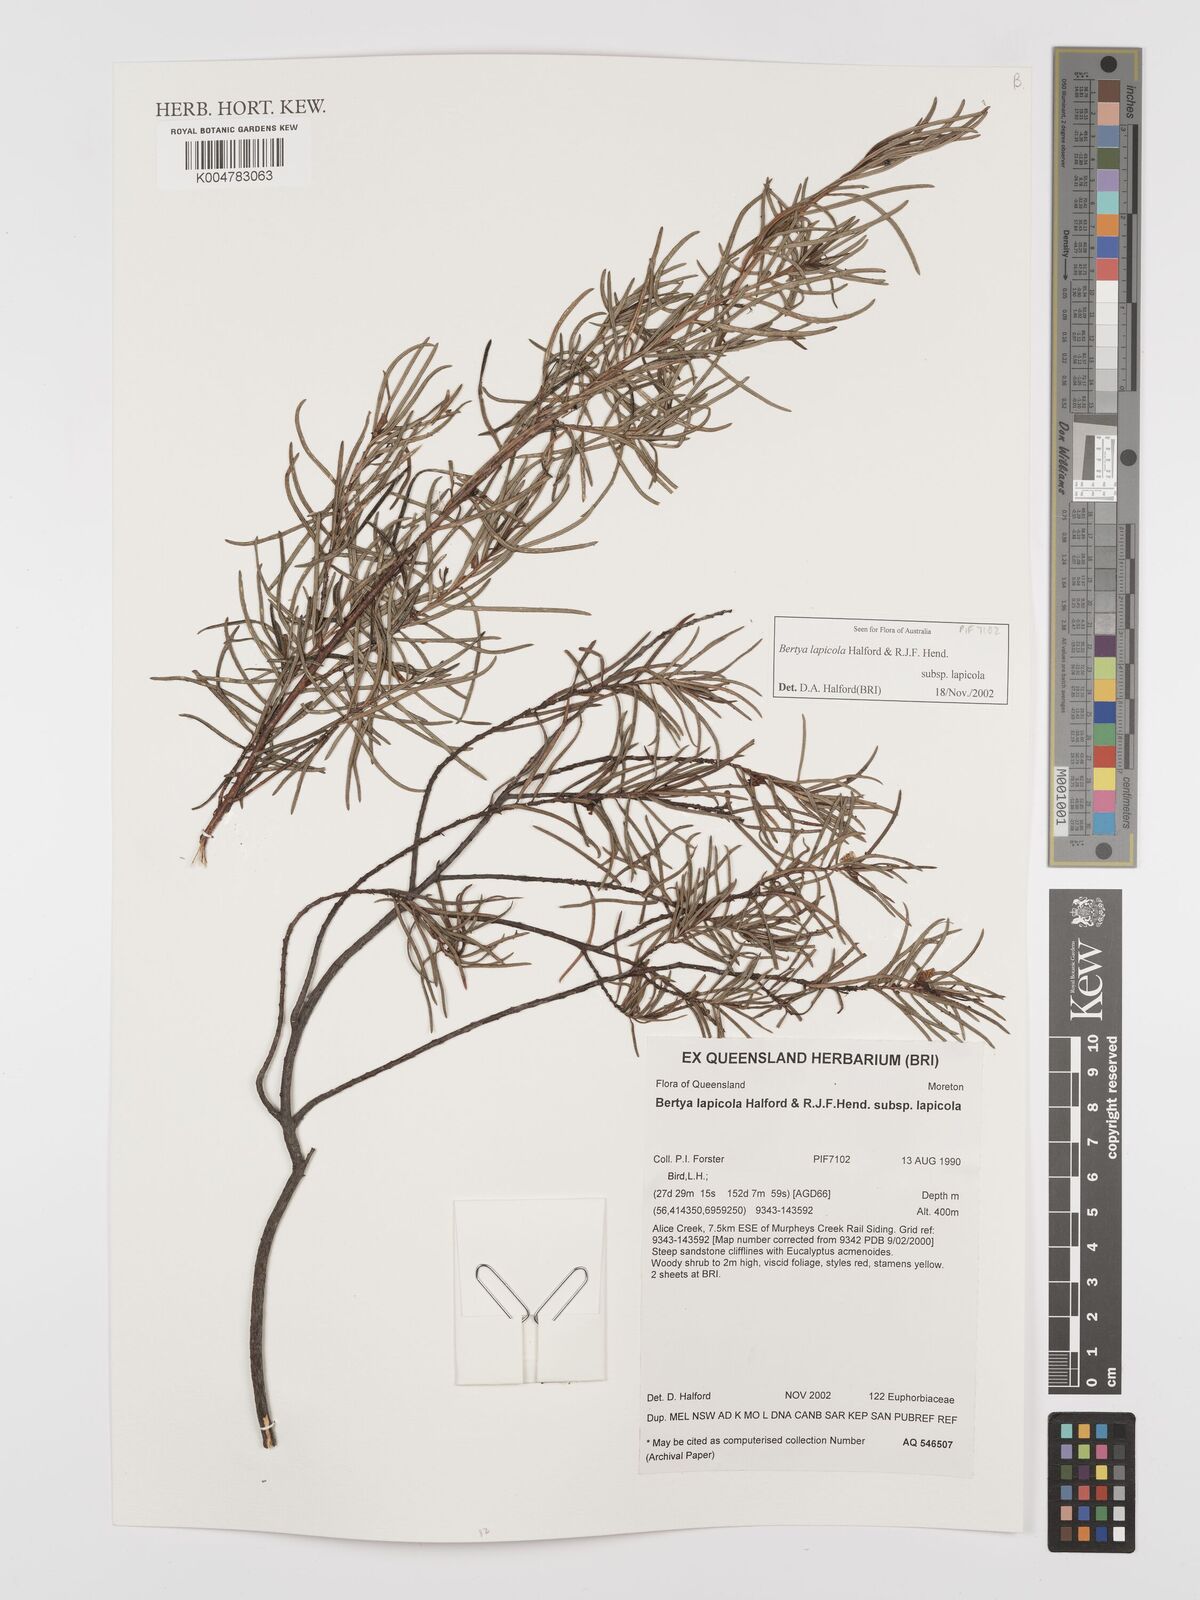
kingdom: Plantae
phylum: Tracheophyta
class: Magnoliopsida
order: Malpighiales
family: Euphorbiaceae
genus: Bertya
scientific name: Bertya lapicola
